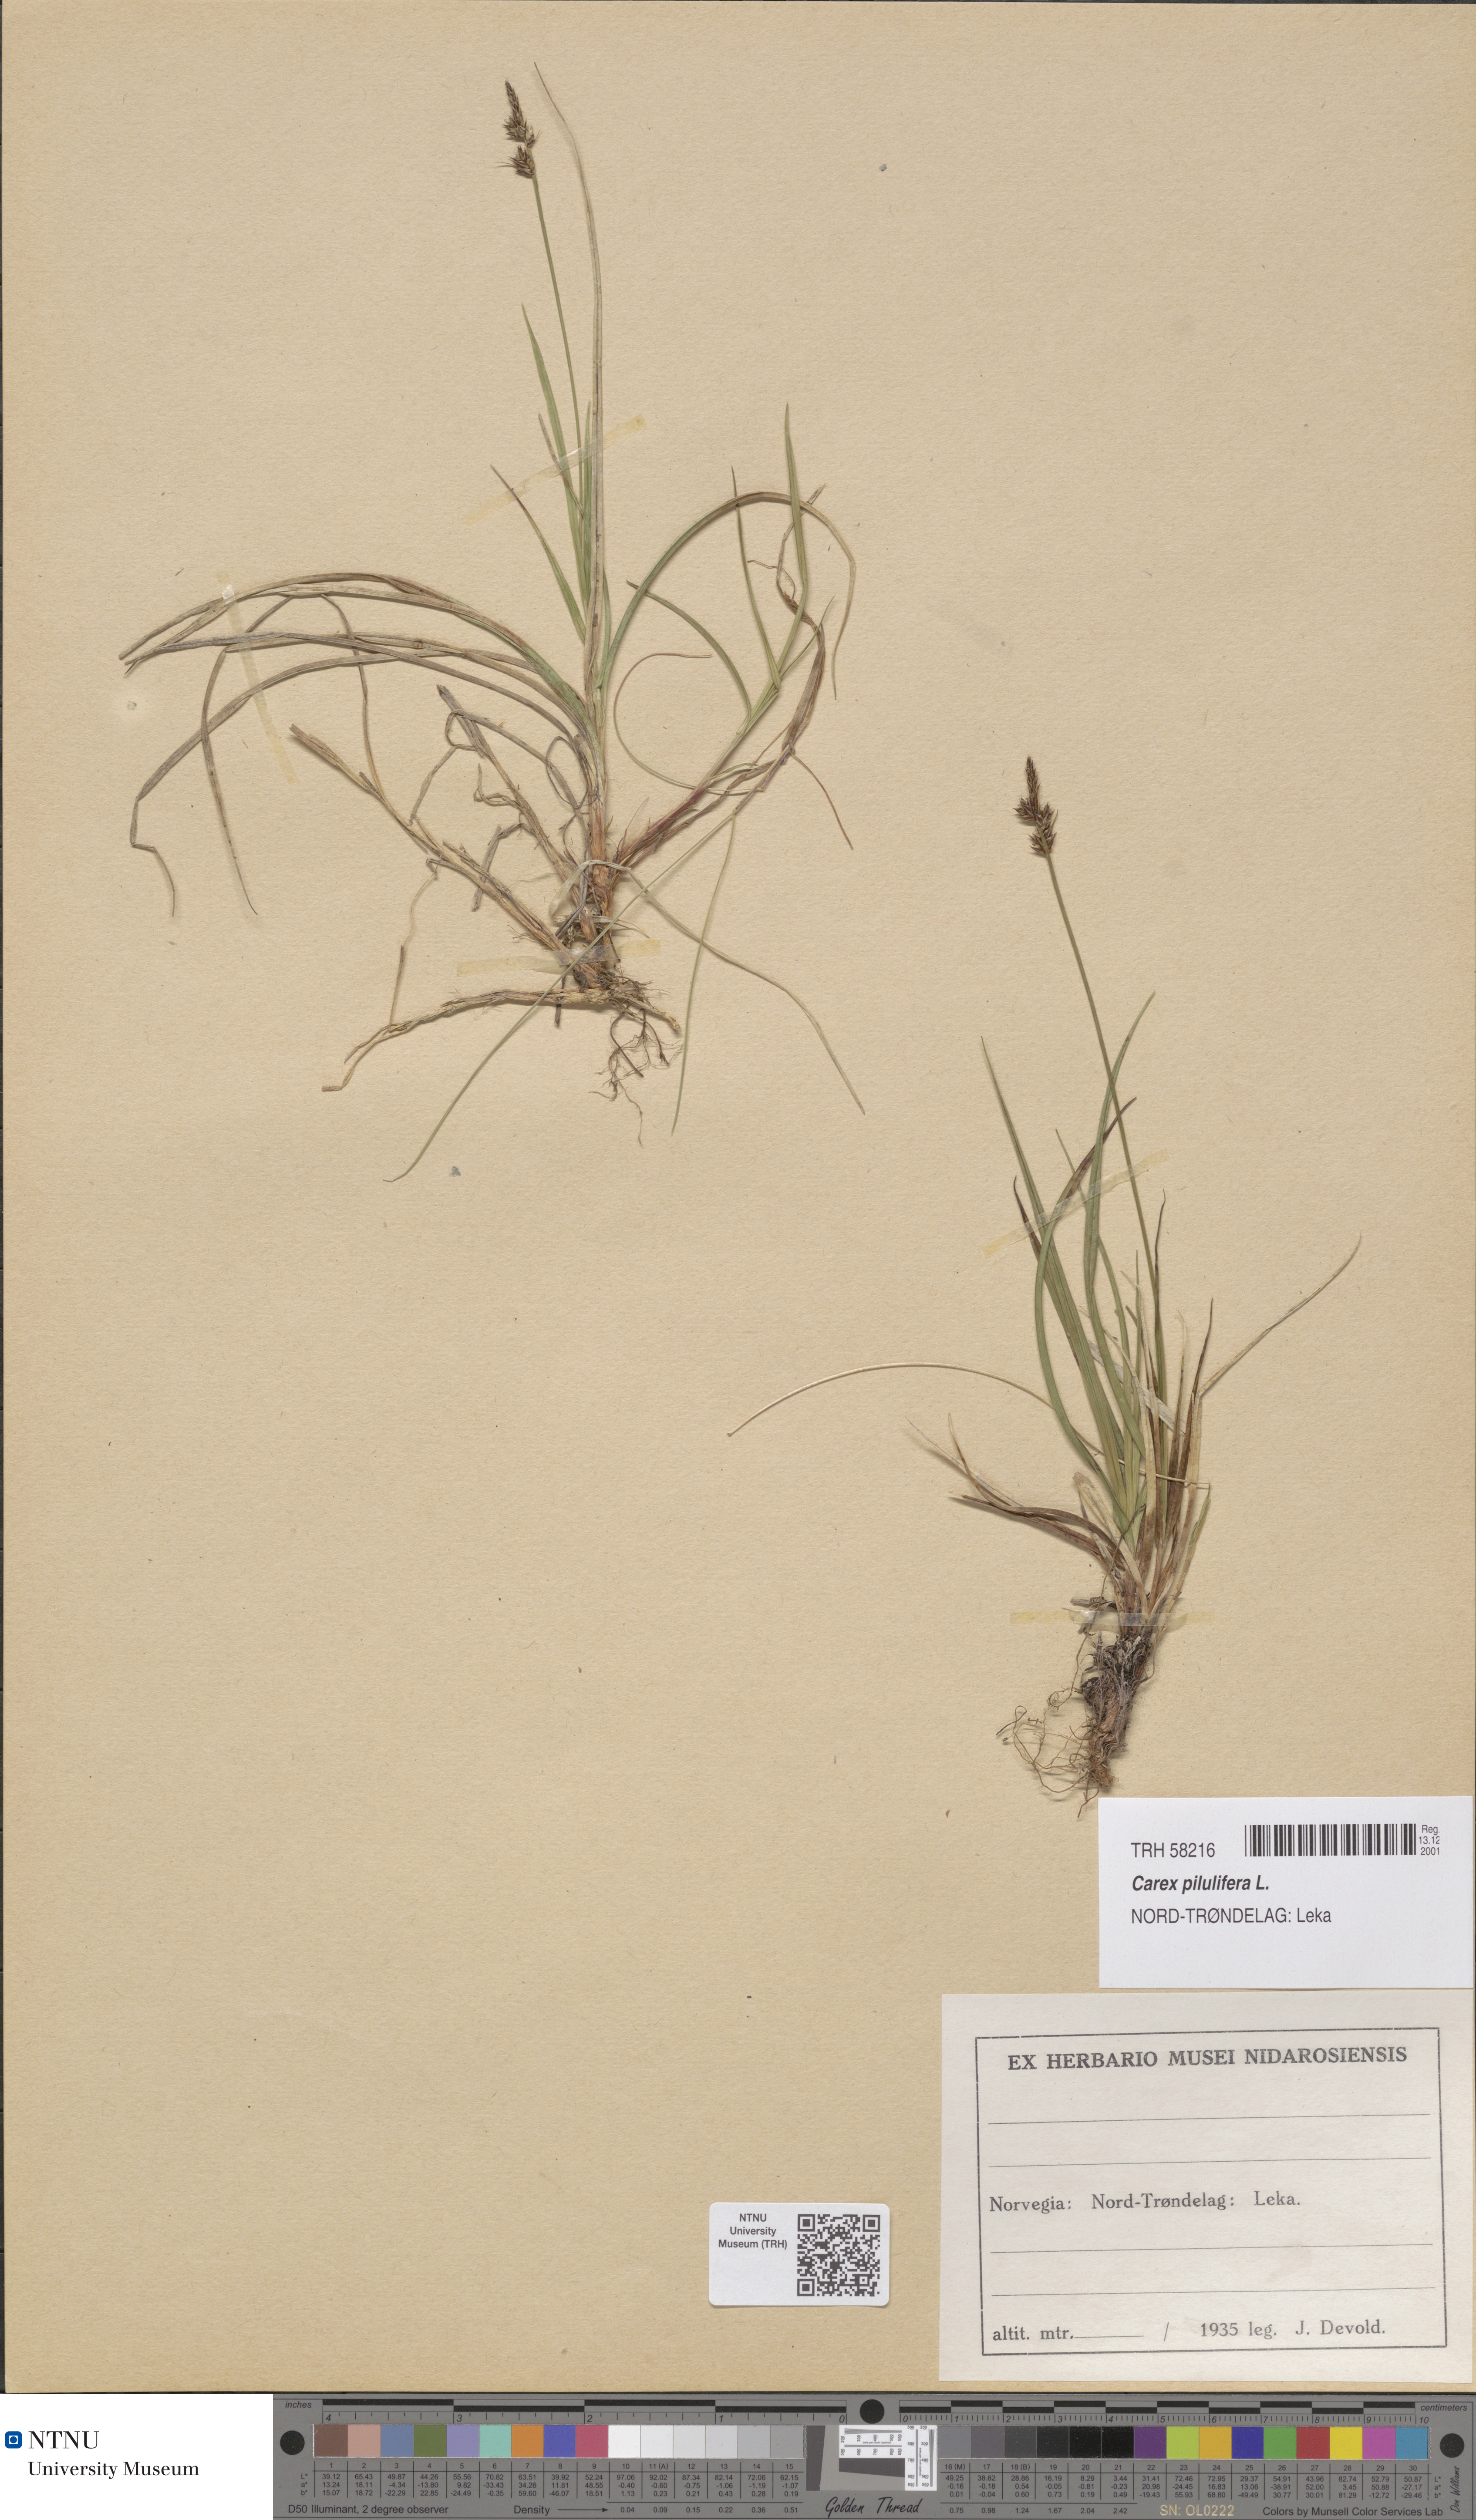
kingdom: Plantae
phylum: Tracheophyta
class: Liliopsida
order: Poales
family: Cyperaceae
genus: Carex
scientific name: Carex pilulifera
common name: Pill sedge
